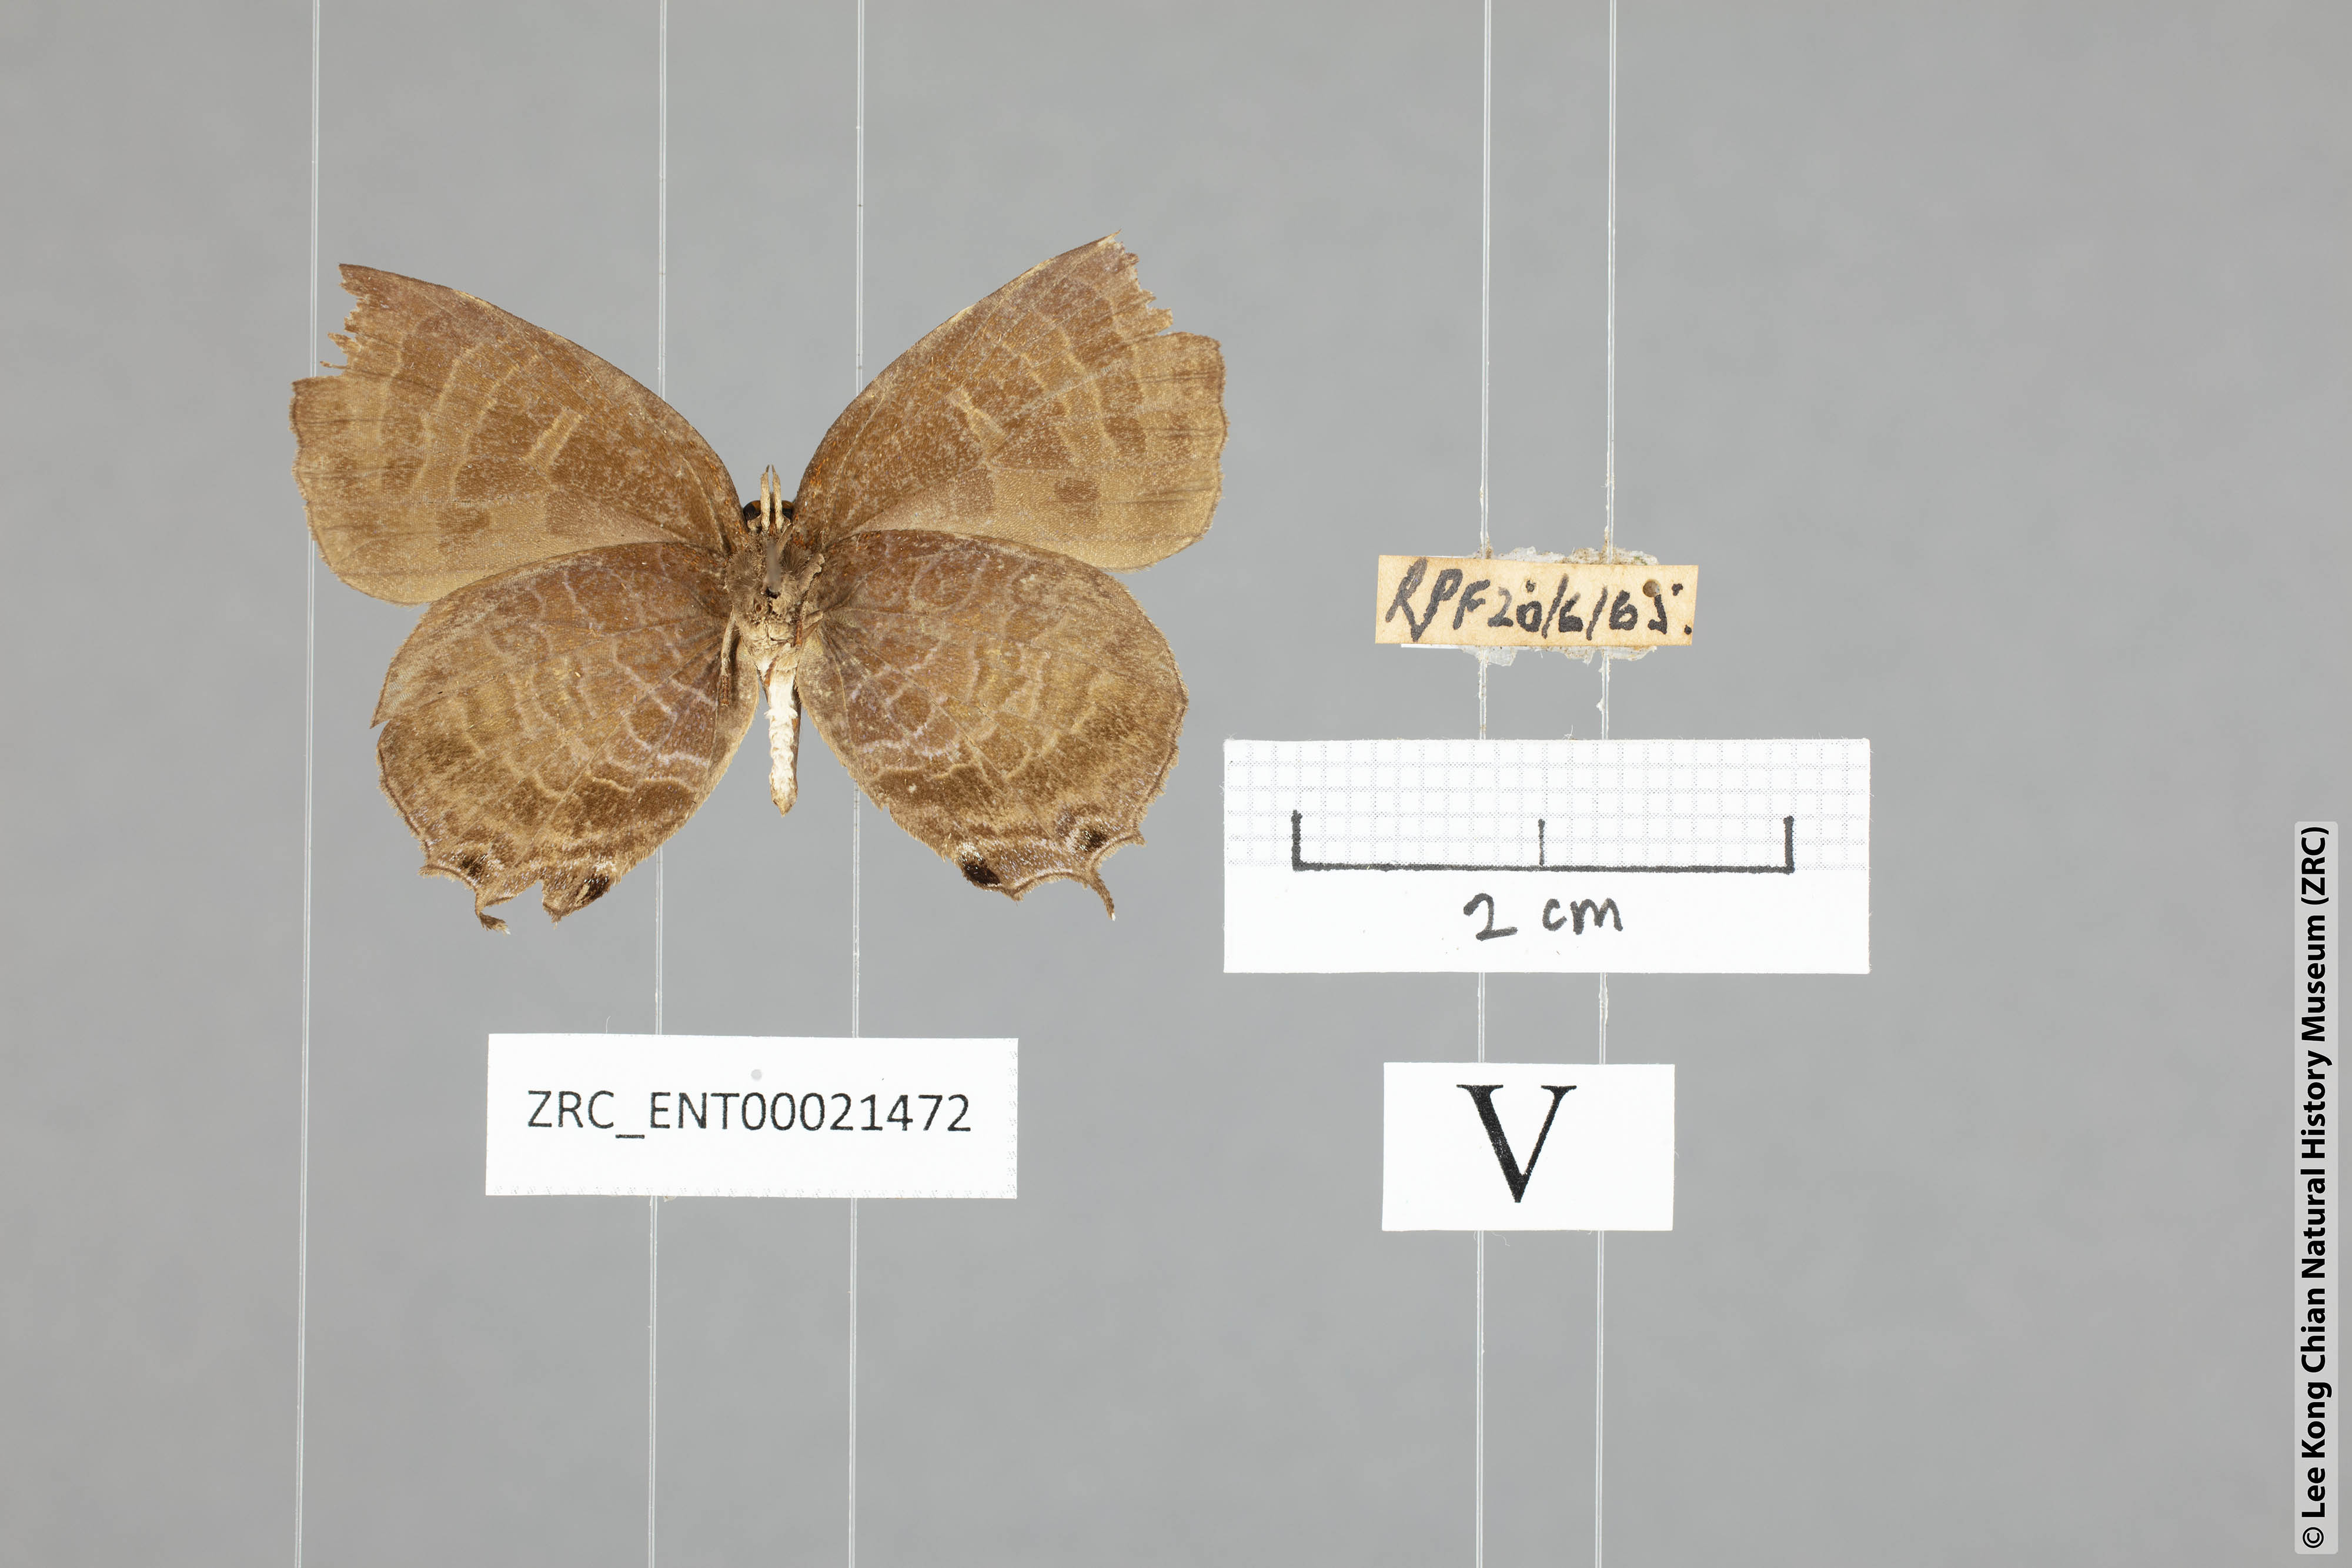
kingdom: Animalia
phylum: Arthropoda
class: Insecta
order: Lepidoptera
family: Lycaenidae
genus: Flos
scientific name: Flos apidanus
